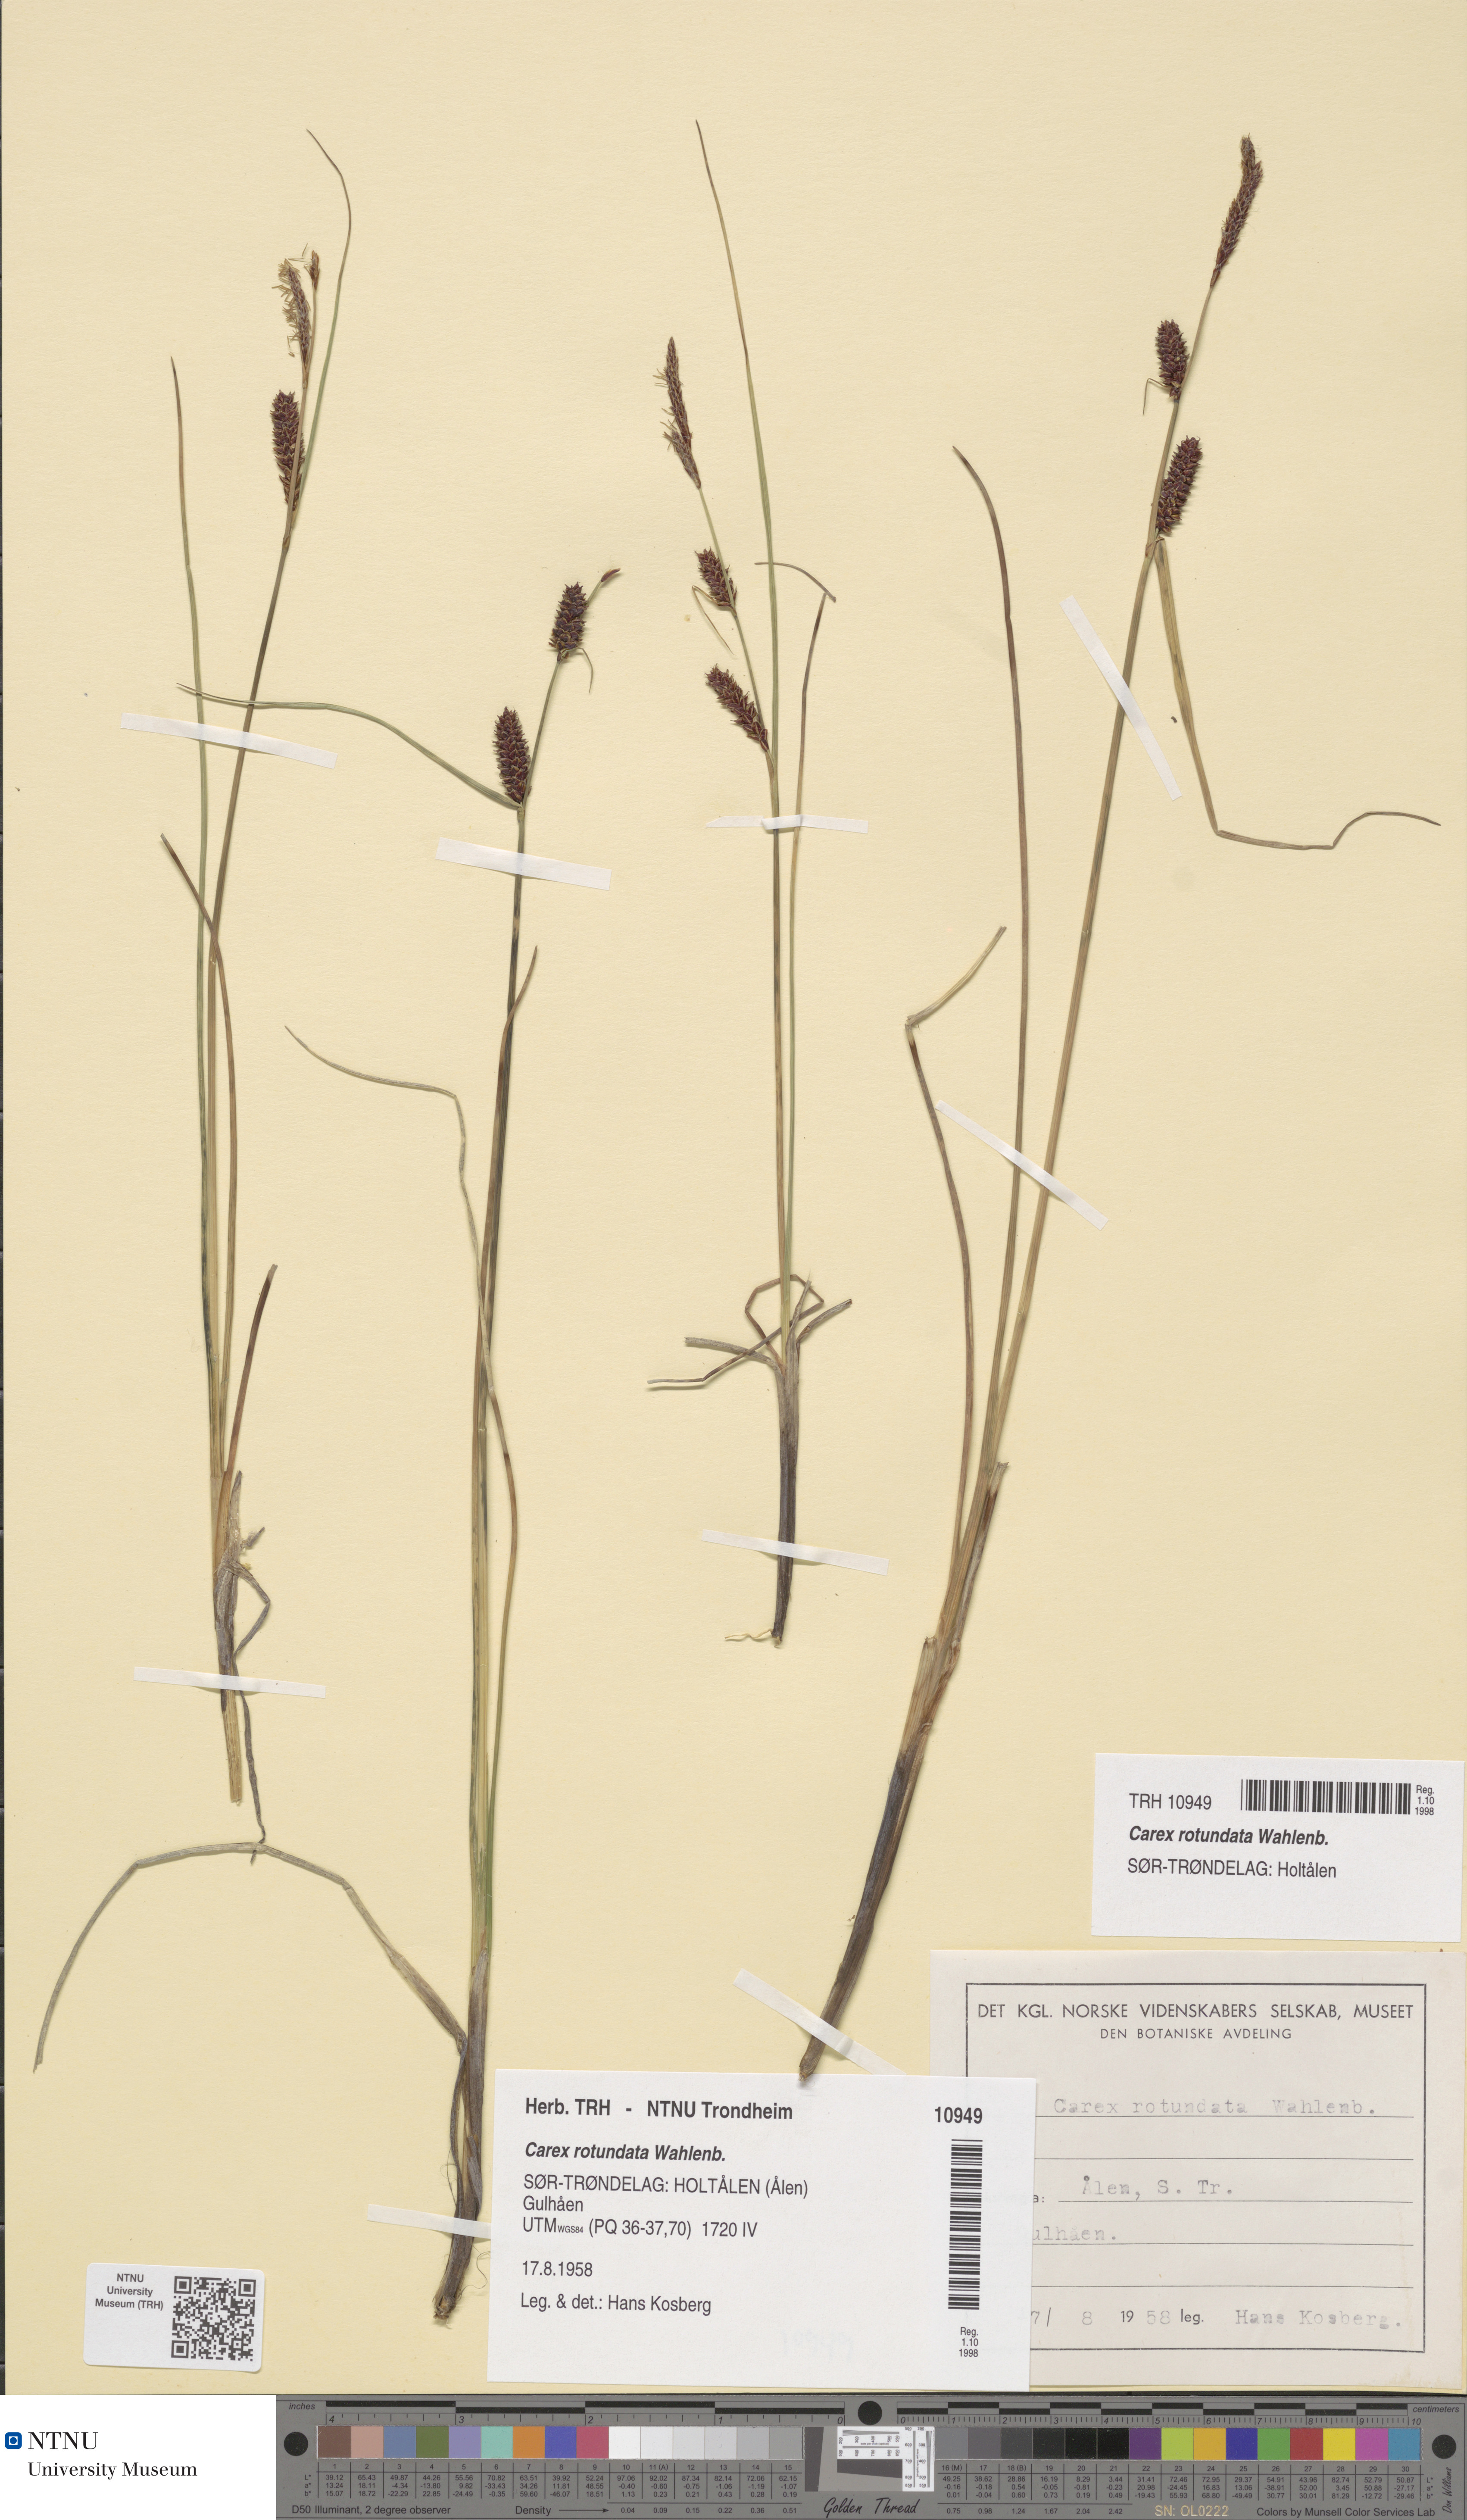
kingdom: Plantae
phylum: Tracheophyta
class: Liliopsida
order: Poales
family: Cyperaceae
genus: Carex
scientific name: Carex rotundata
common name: Round-fruited sedge
